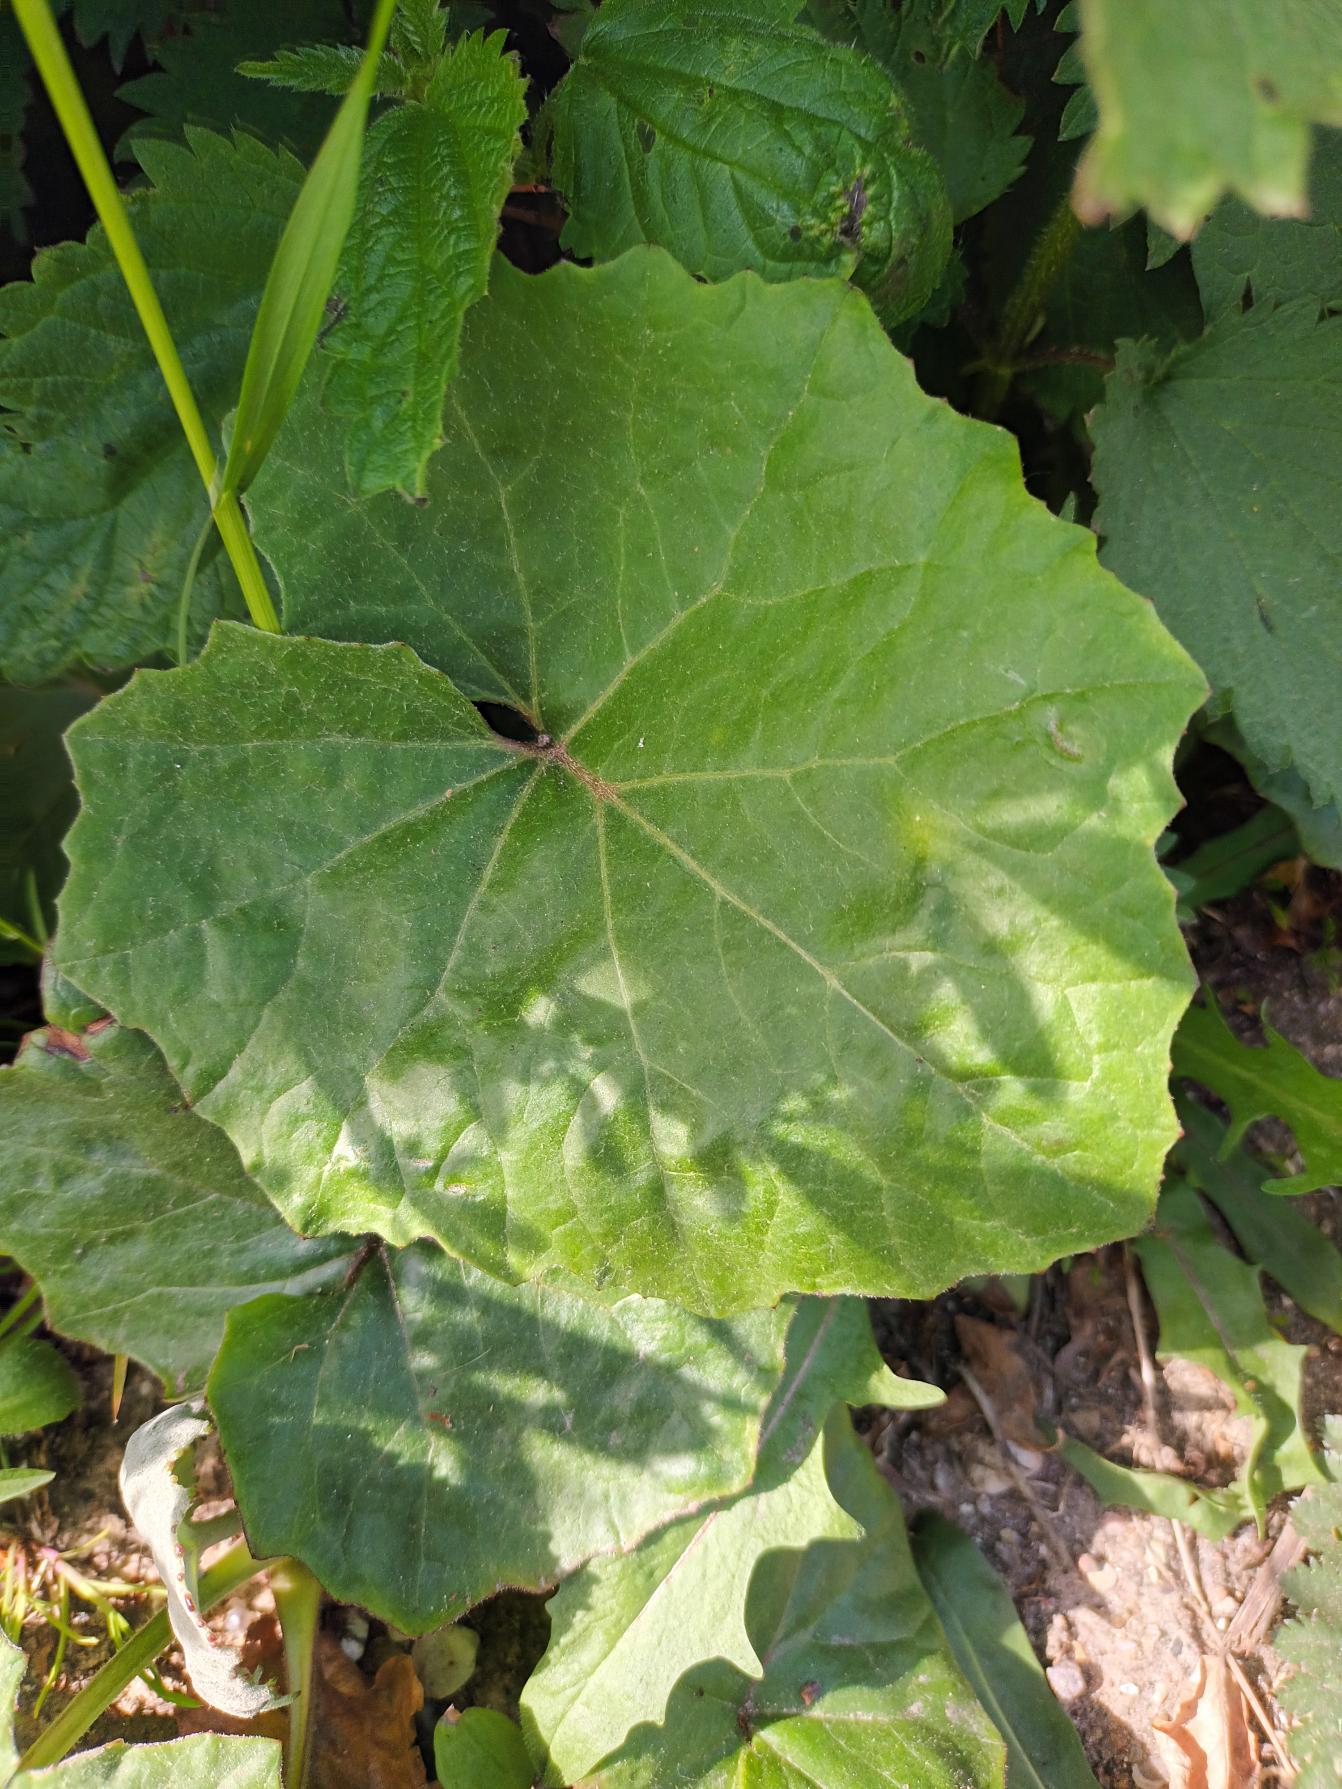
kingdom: Plantae
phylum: Tracheophyta
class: Magnoliopsida
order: Asterales
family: Asteraceae
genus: Tussilago
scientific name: Tussilago farfara
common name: Følfod
